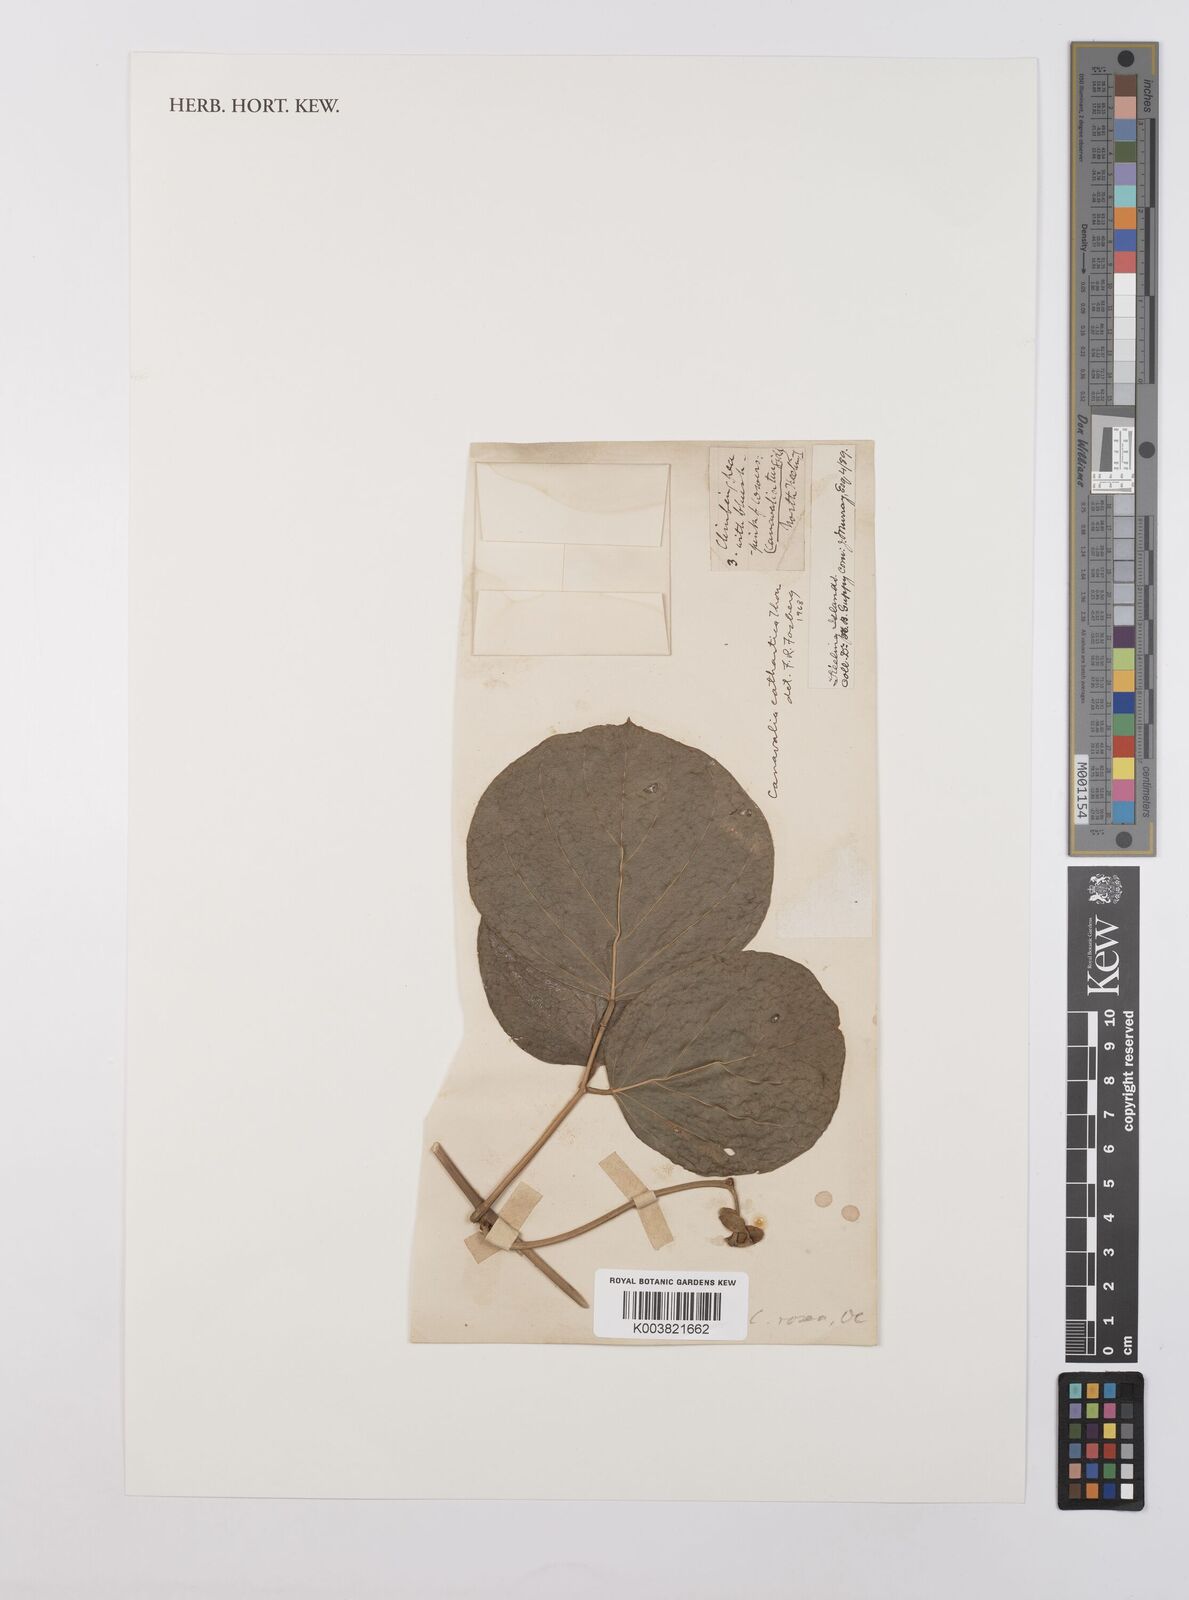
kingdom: Plantae
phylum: Tracheophyta
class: Magnoliopsida
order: Fabales
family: Fabaceae
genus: Canavalia
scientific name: Canavalia cathartica
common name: Maunaloa
